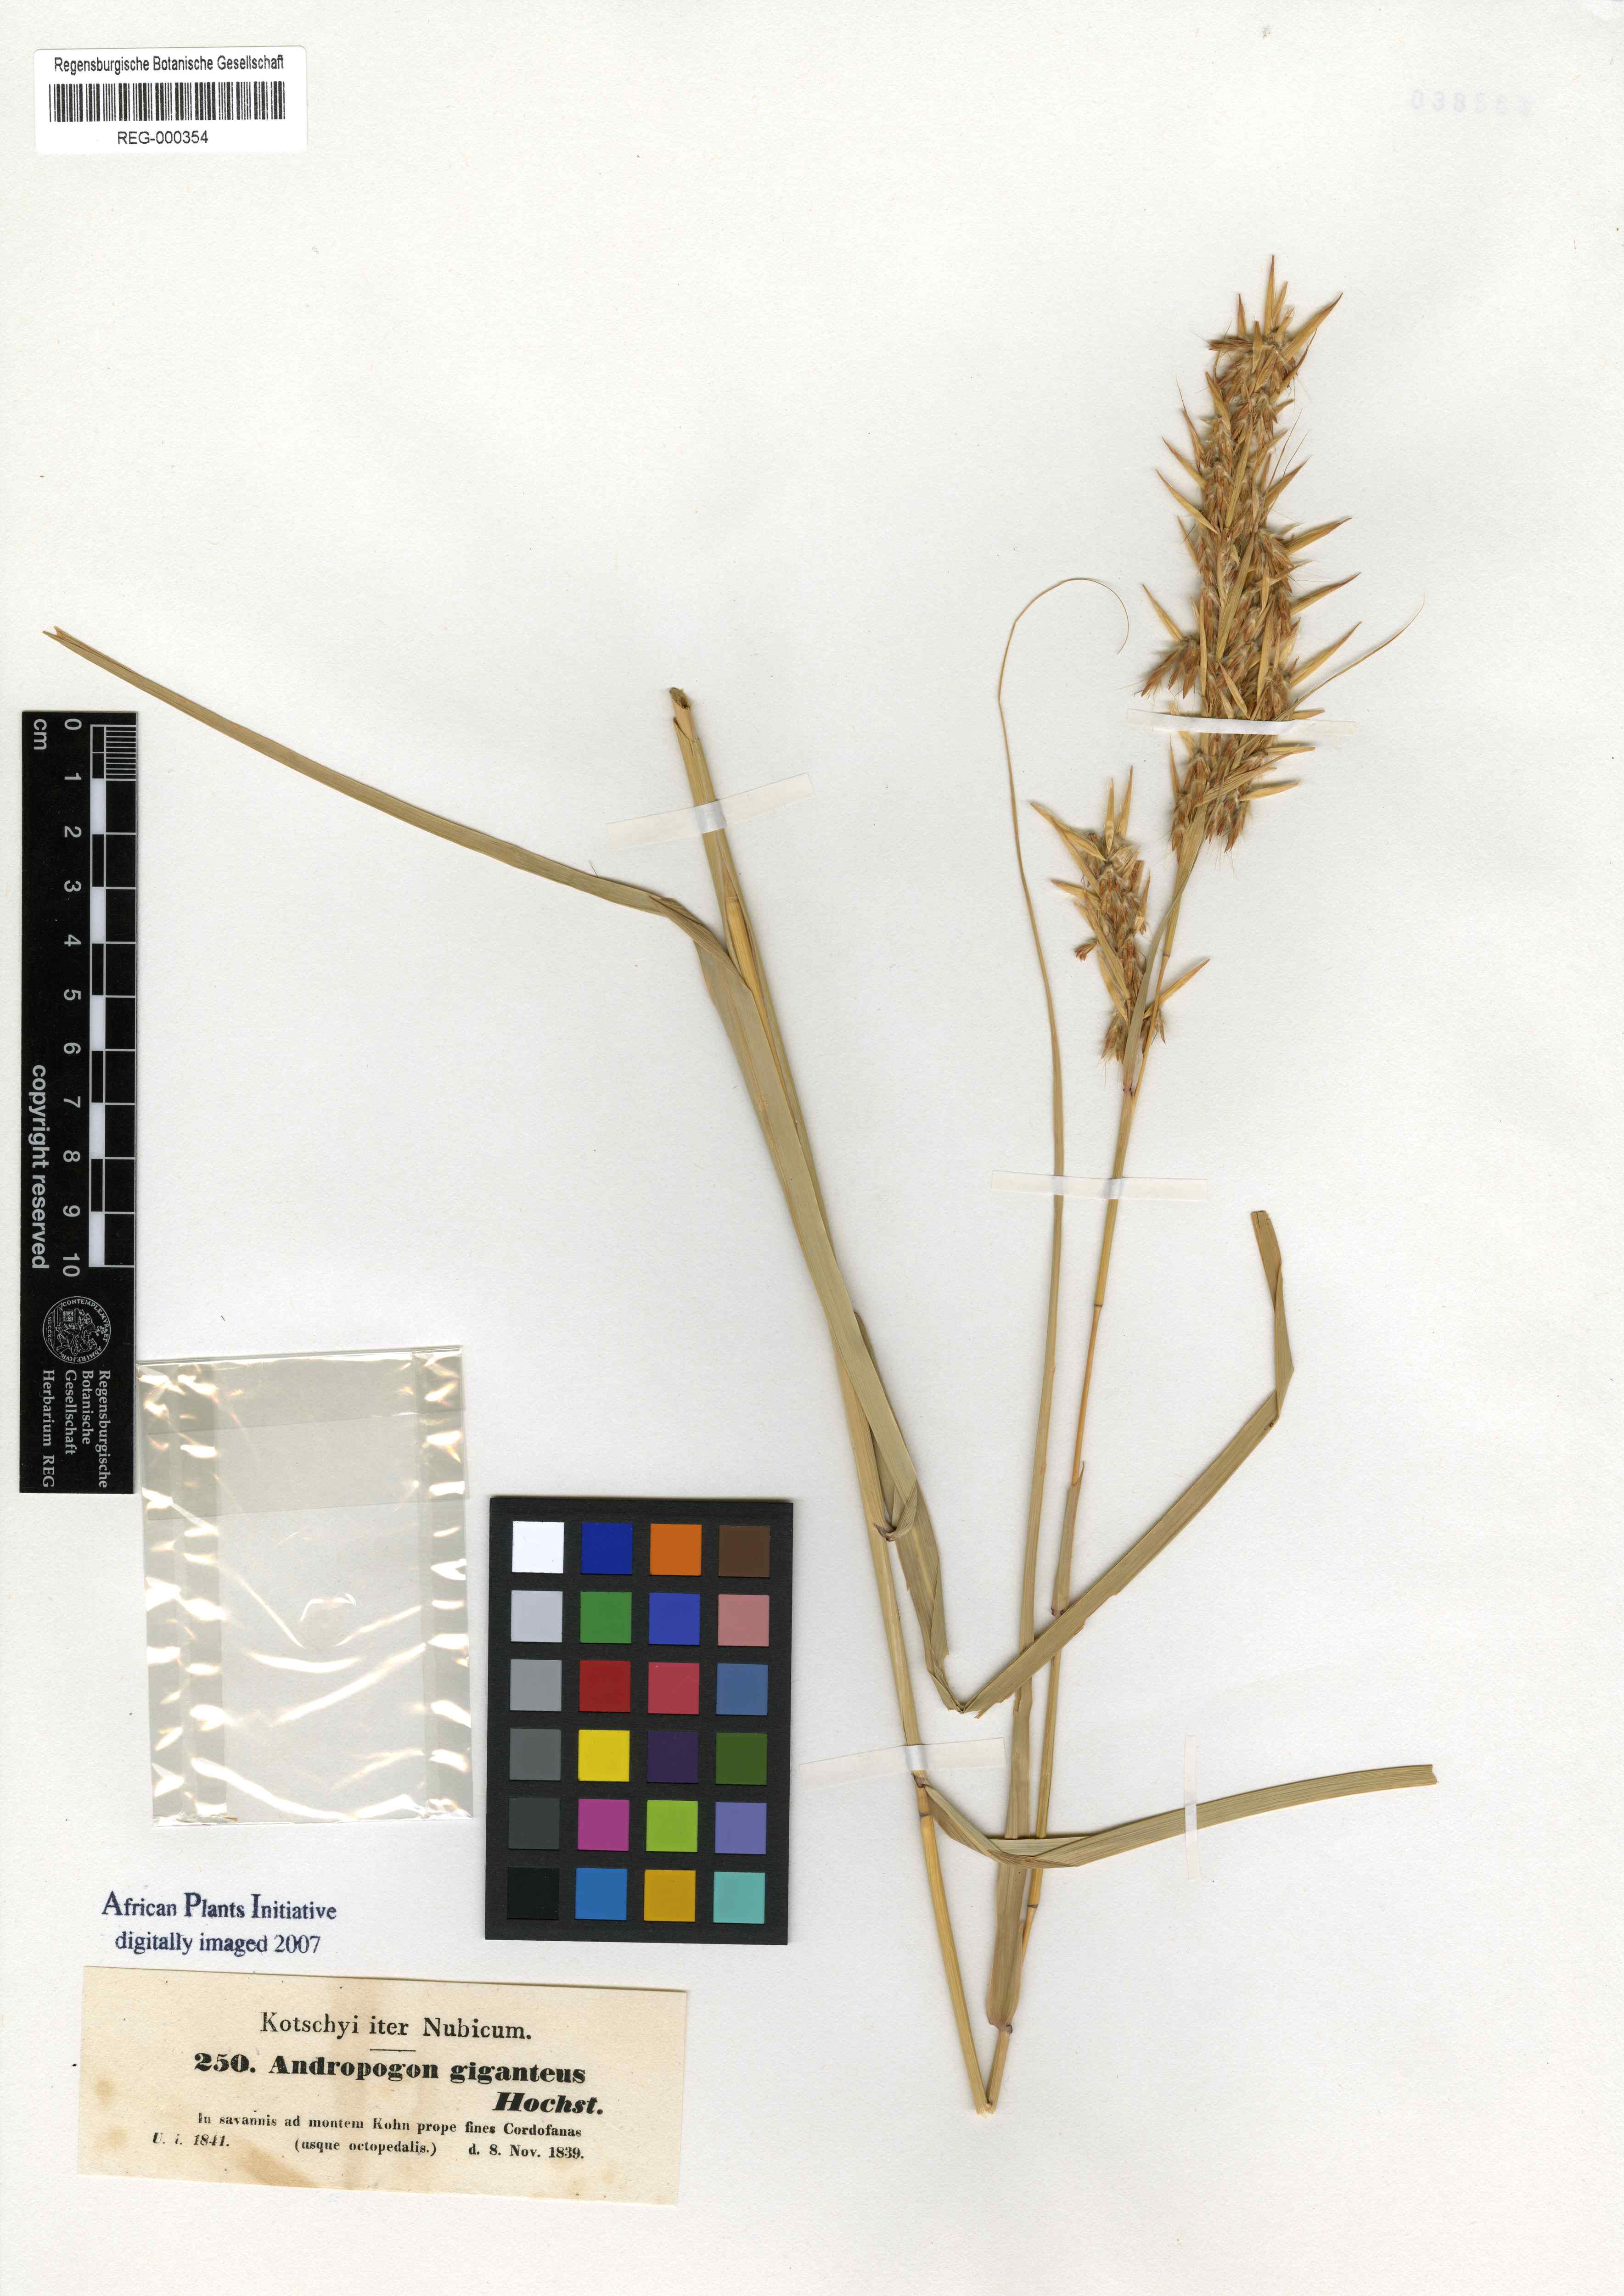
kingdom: Plantae
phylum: Tracheophyta
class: Liliopsida
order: Poales
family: Poaceae
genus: Cymbopogon
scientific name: Cymbopogon giganteus
